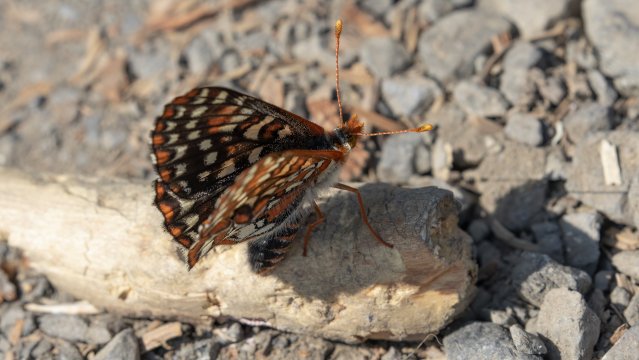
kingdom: Animalia
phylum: Arthropoda
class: Insecta
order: Lepidoptera
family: Nymphalidae
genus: Occidryas
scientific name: Occidryas anicia
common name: Anicia Checkerspot
